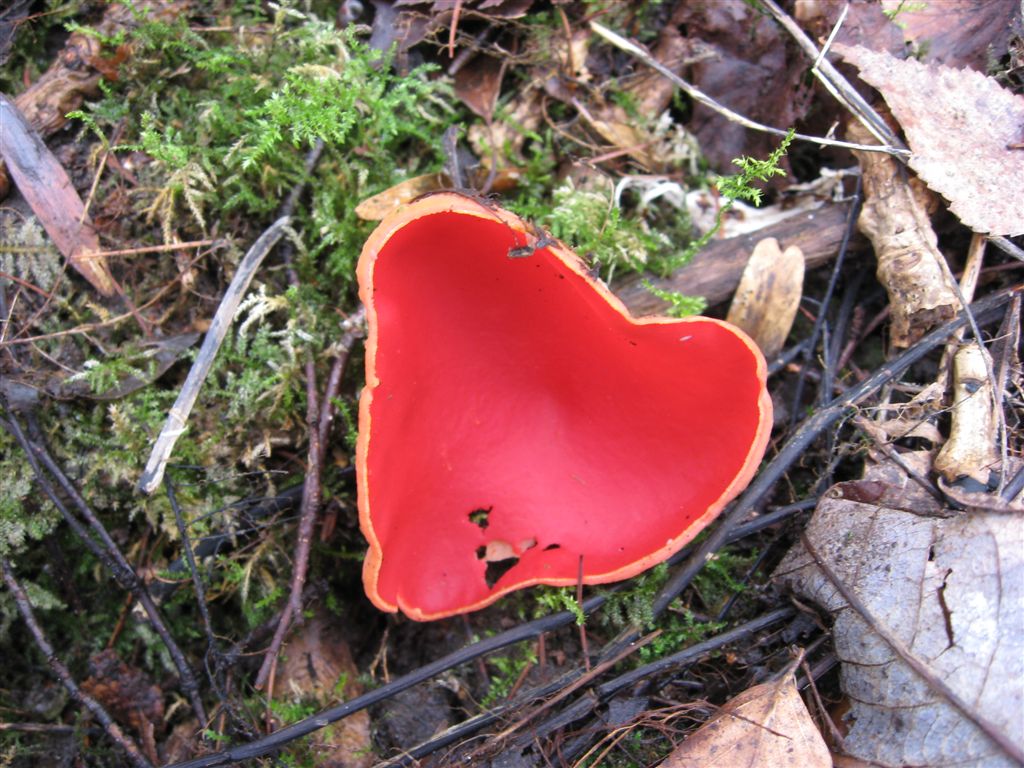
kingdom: Fungi
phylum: Ascomycota
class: Pezizomycetes
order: Pezizales
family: Sarcoscyphaceae
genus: Sarcoscypha
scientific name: Sarcoscypha austriaca
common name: krølhåret pragtbæger
